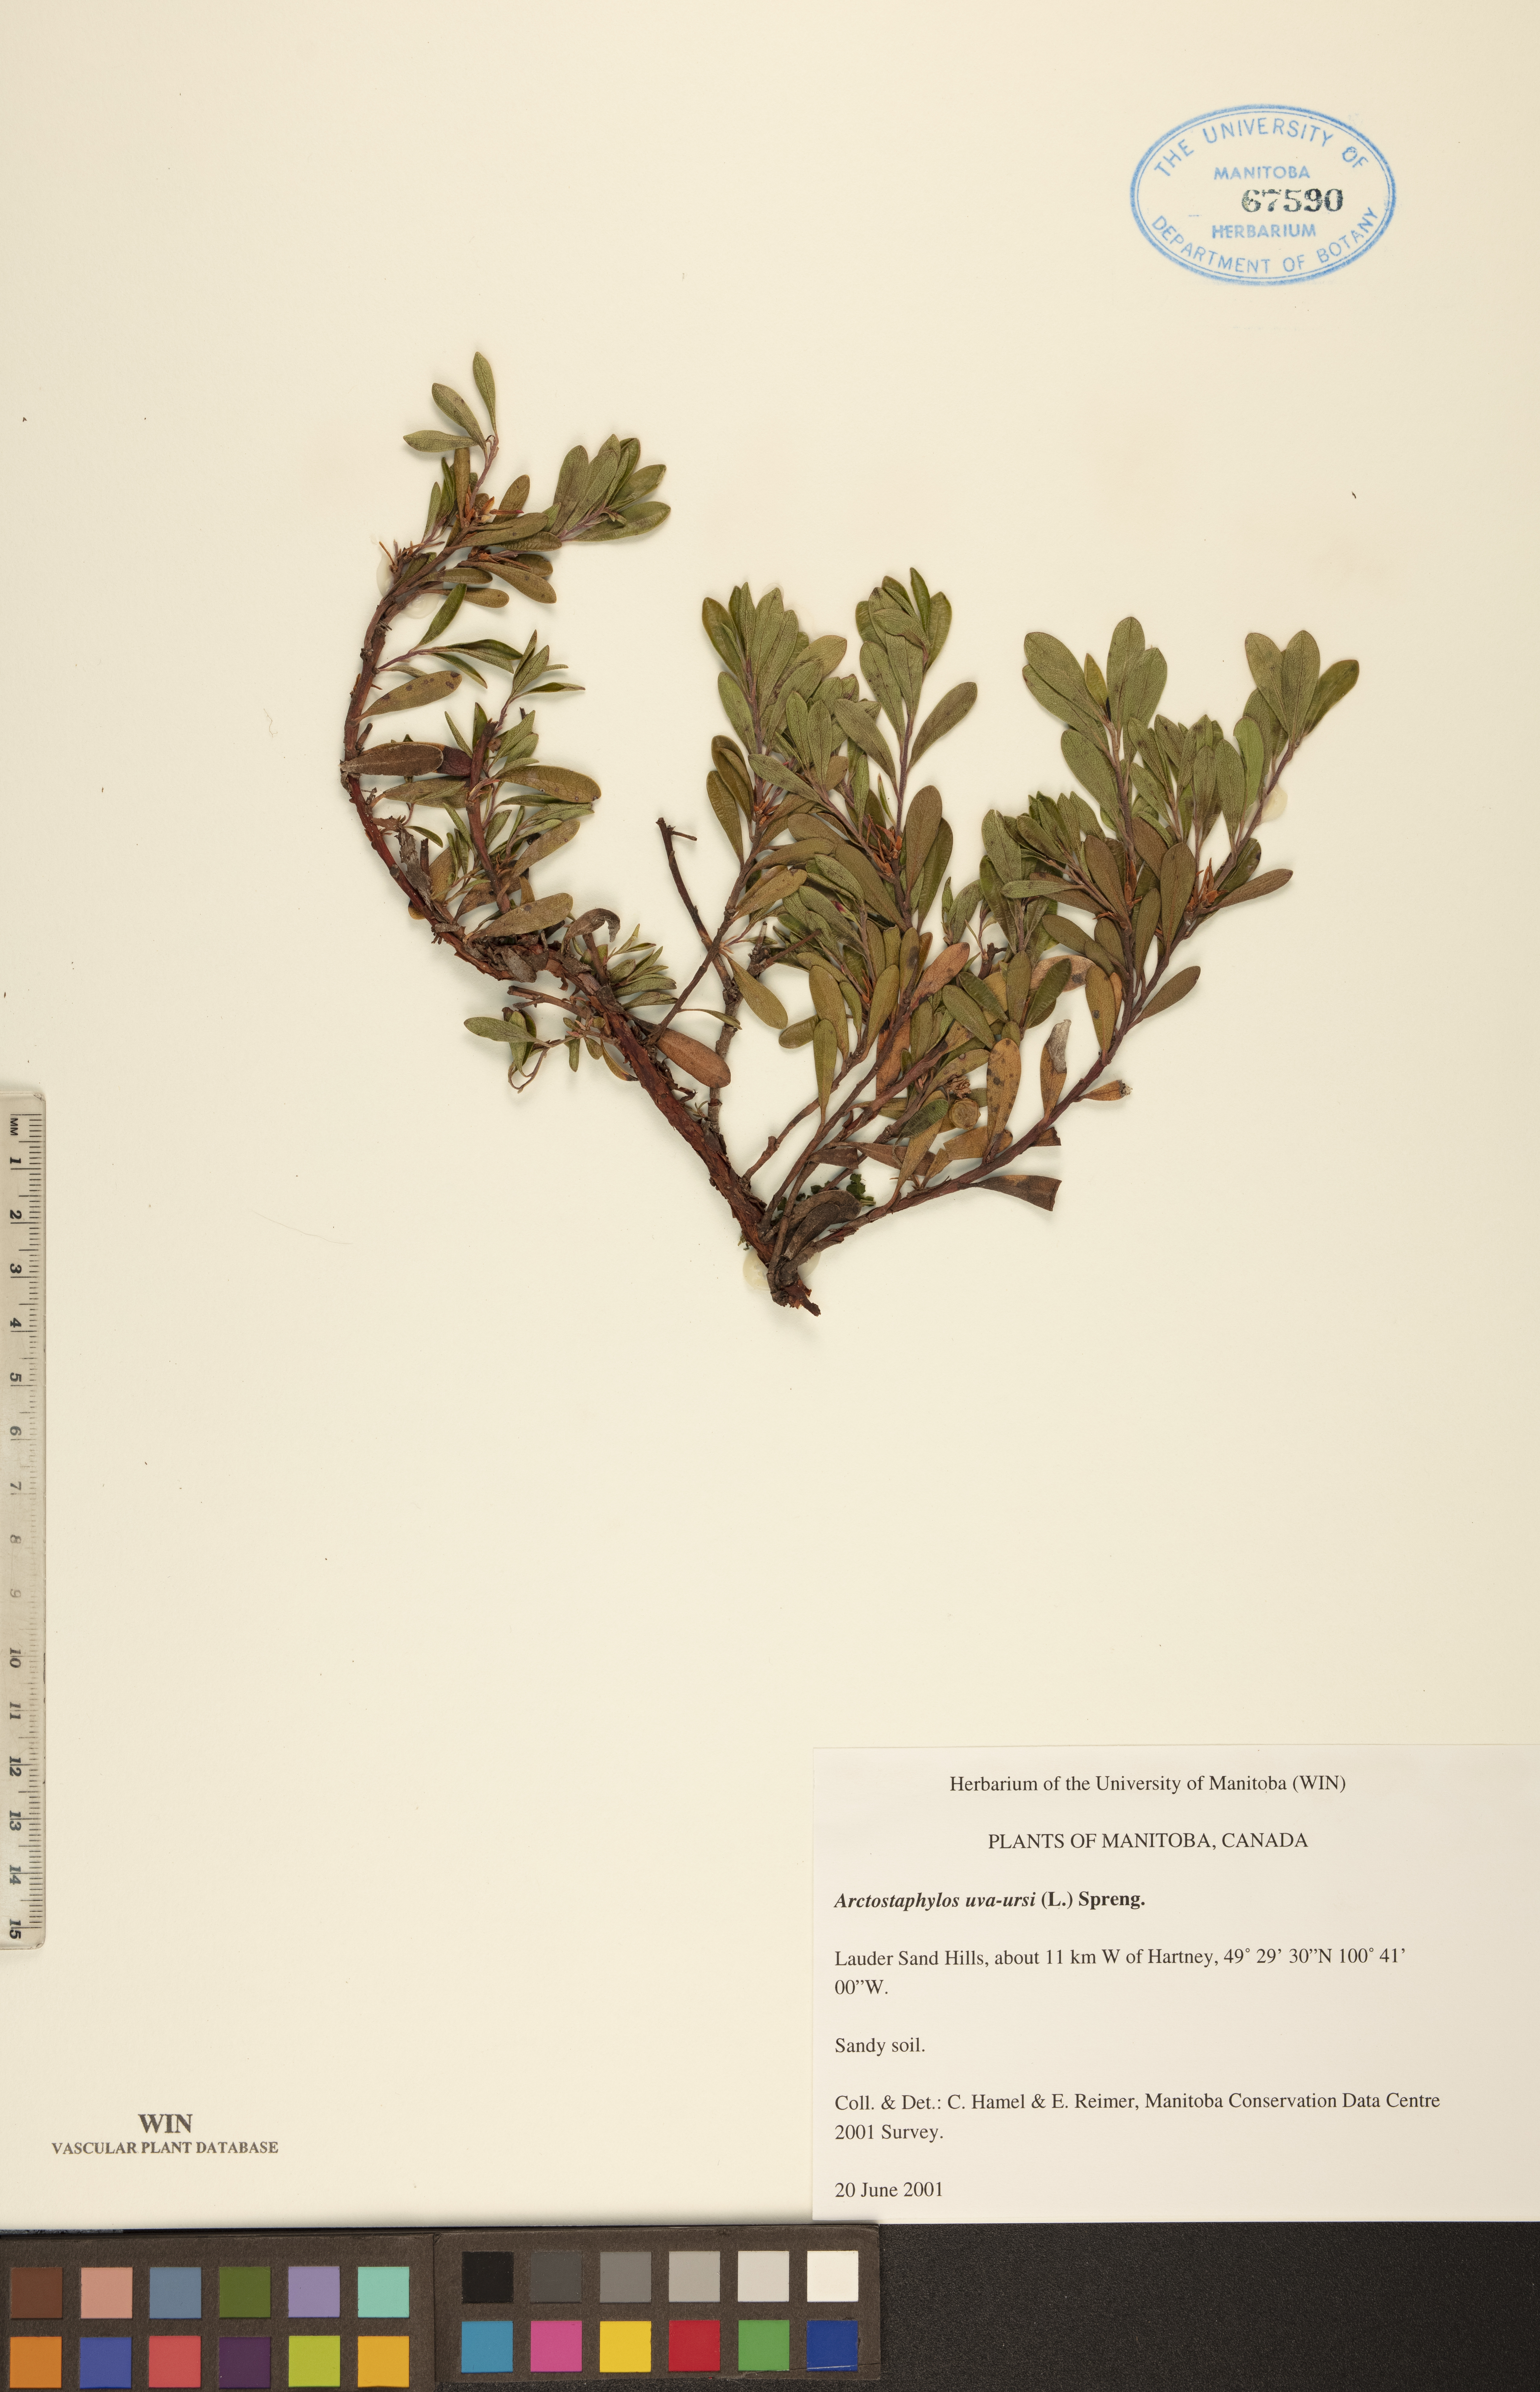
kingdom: Plantae
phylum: Tracheophyta
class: Magnoliopsida
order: Ericales
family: Ericaceae
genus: Arctostaphylos
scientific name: Arctostaphylos uva-ursi
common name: Bearberry
